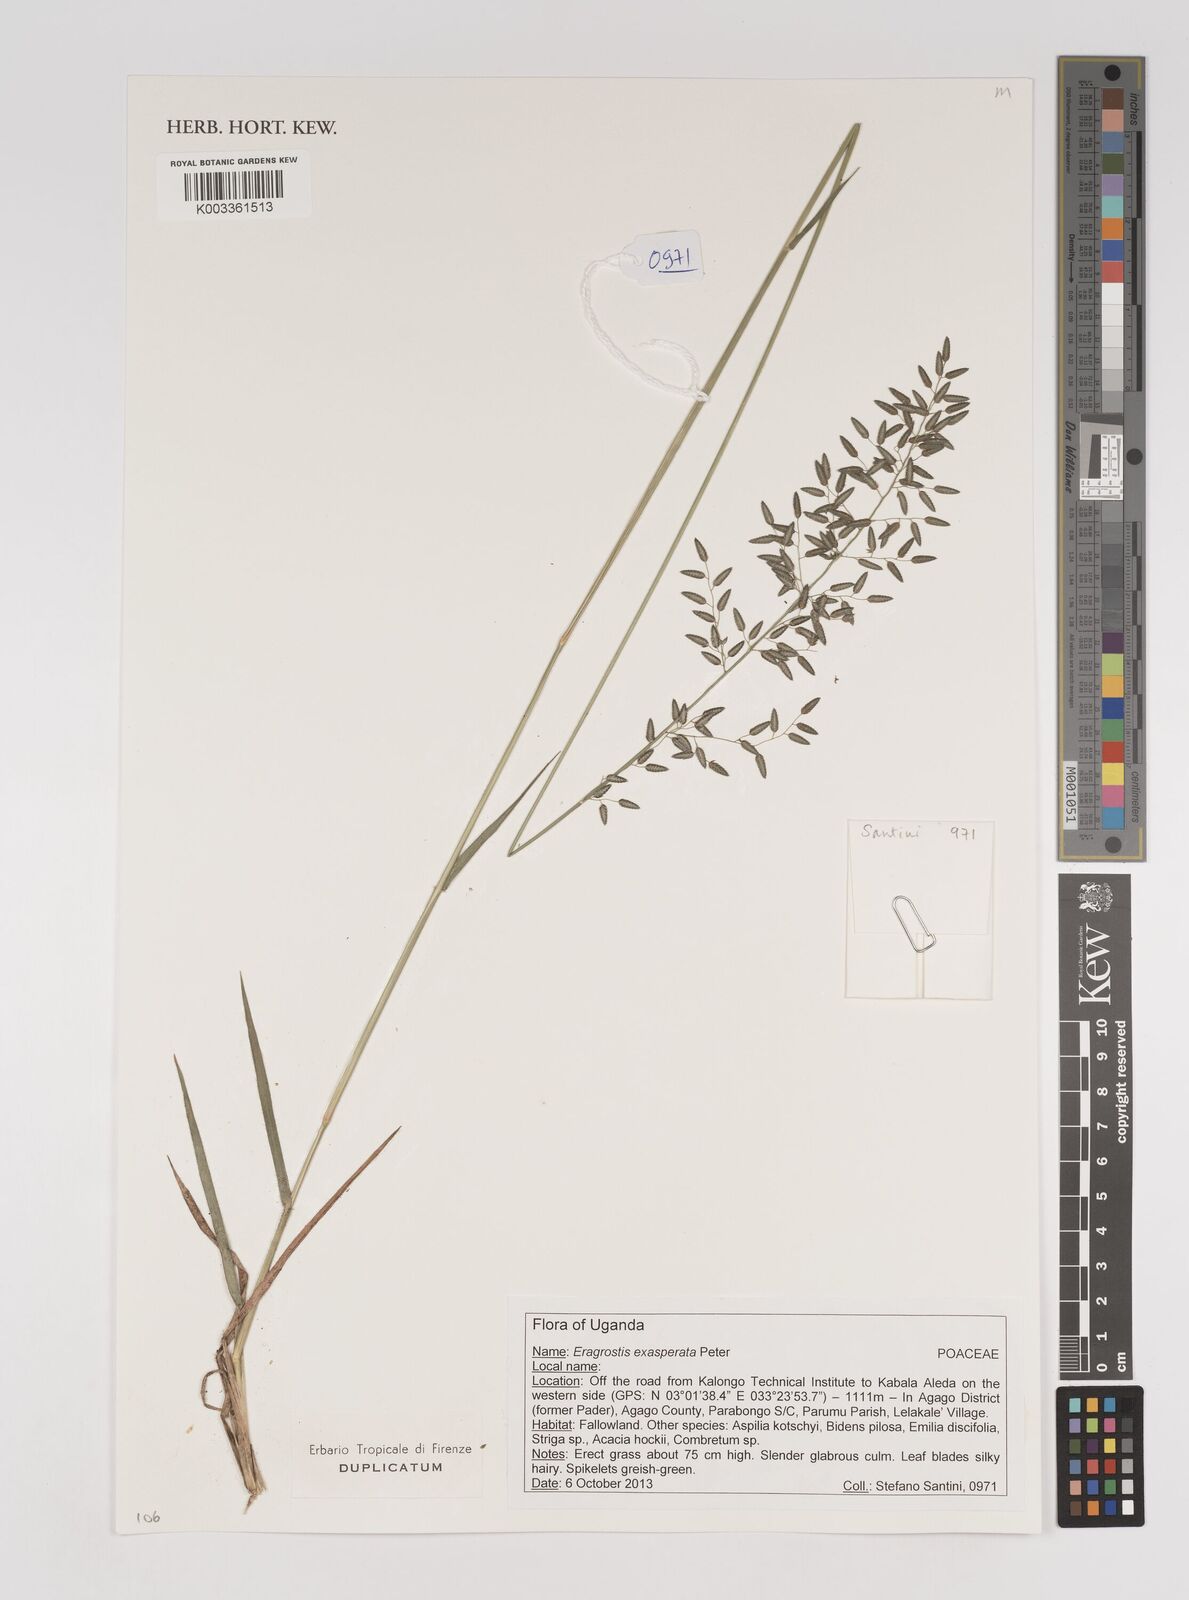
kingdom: Plantae
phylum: Tracheophyta
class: Liliopsida
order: Poales
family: Poaceae
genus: Eragrostis
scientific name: Eragrostis exasperata
